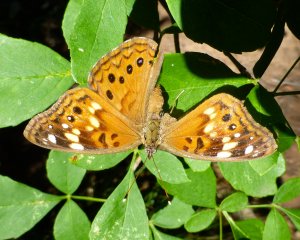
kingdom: Animalia
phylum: Arthropoda
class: Insecta
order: Lepidoptera
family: Nymphalidae
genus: Asterocampa
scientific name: Asterocampa celtis
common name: Hackberry Emperor
